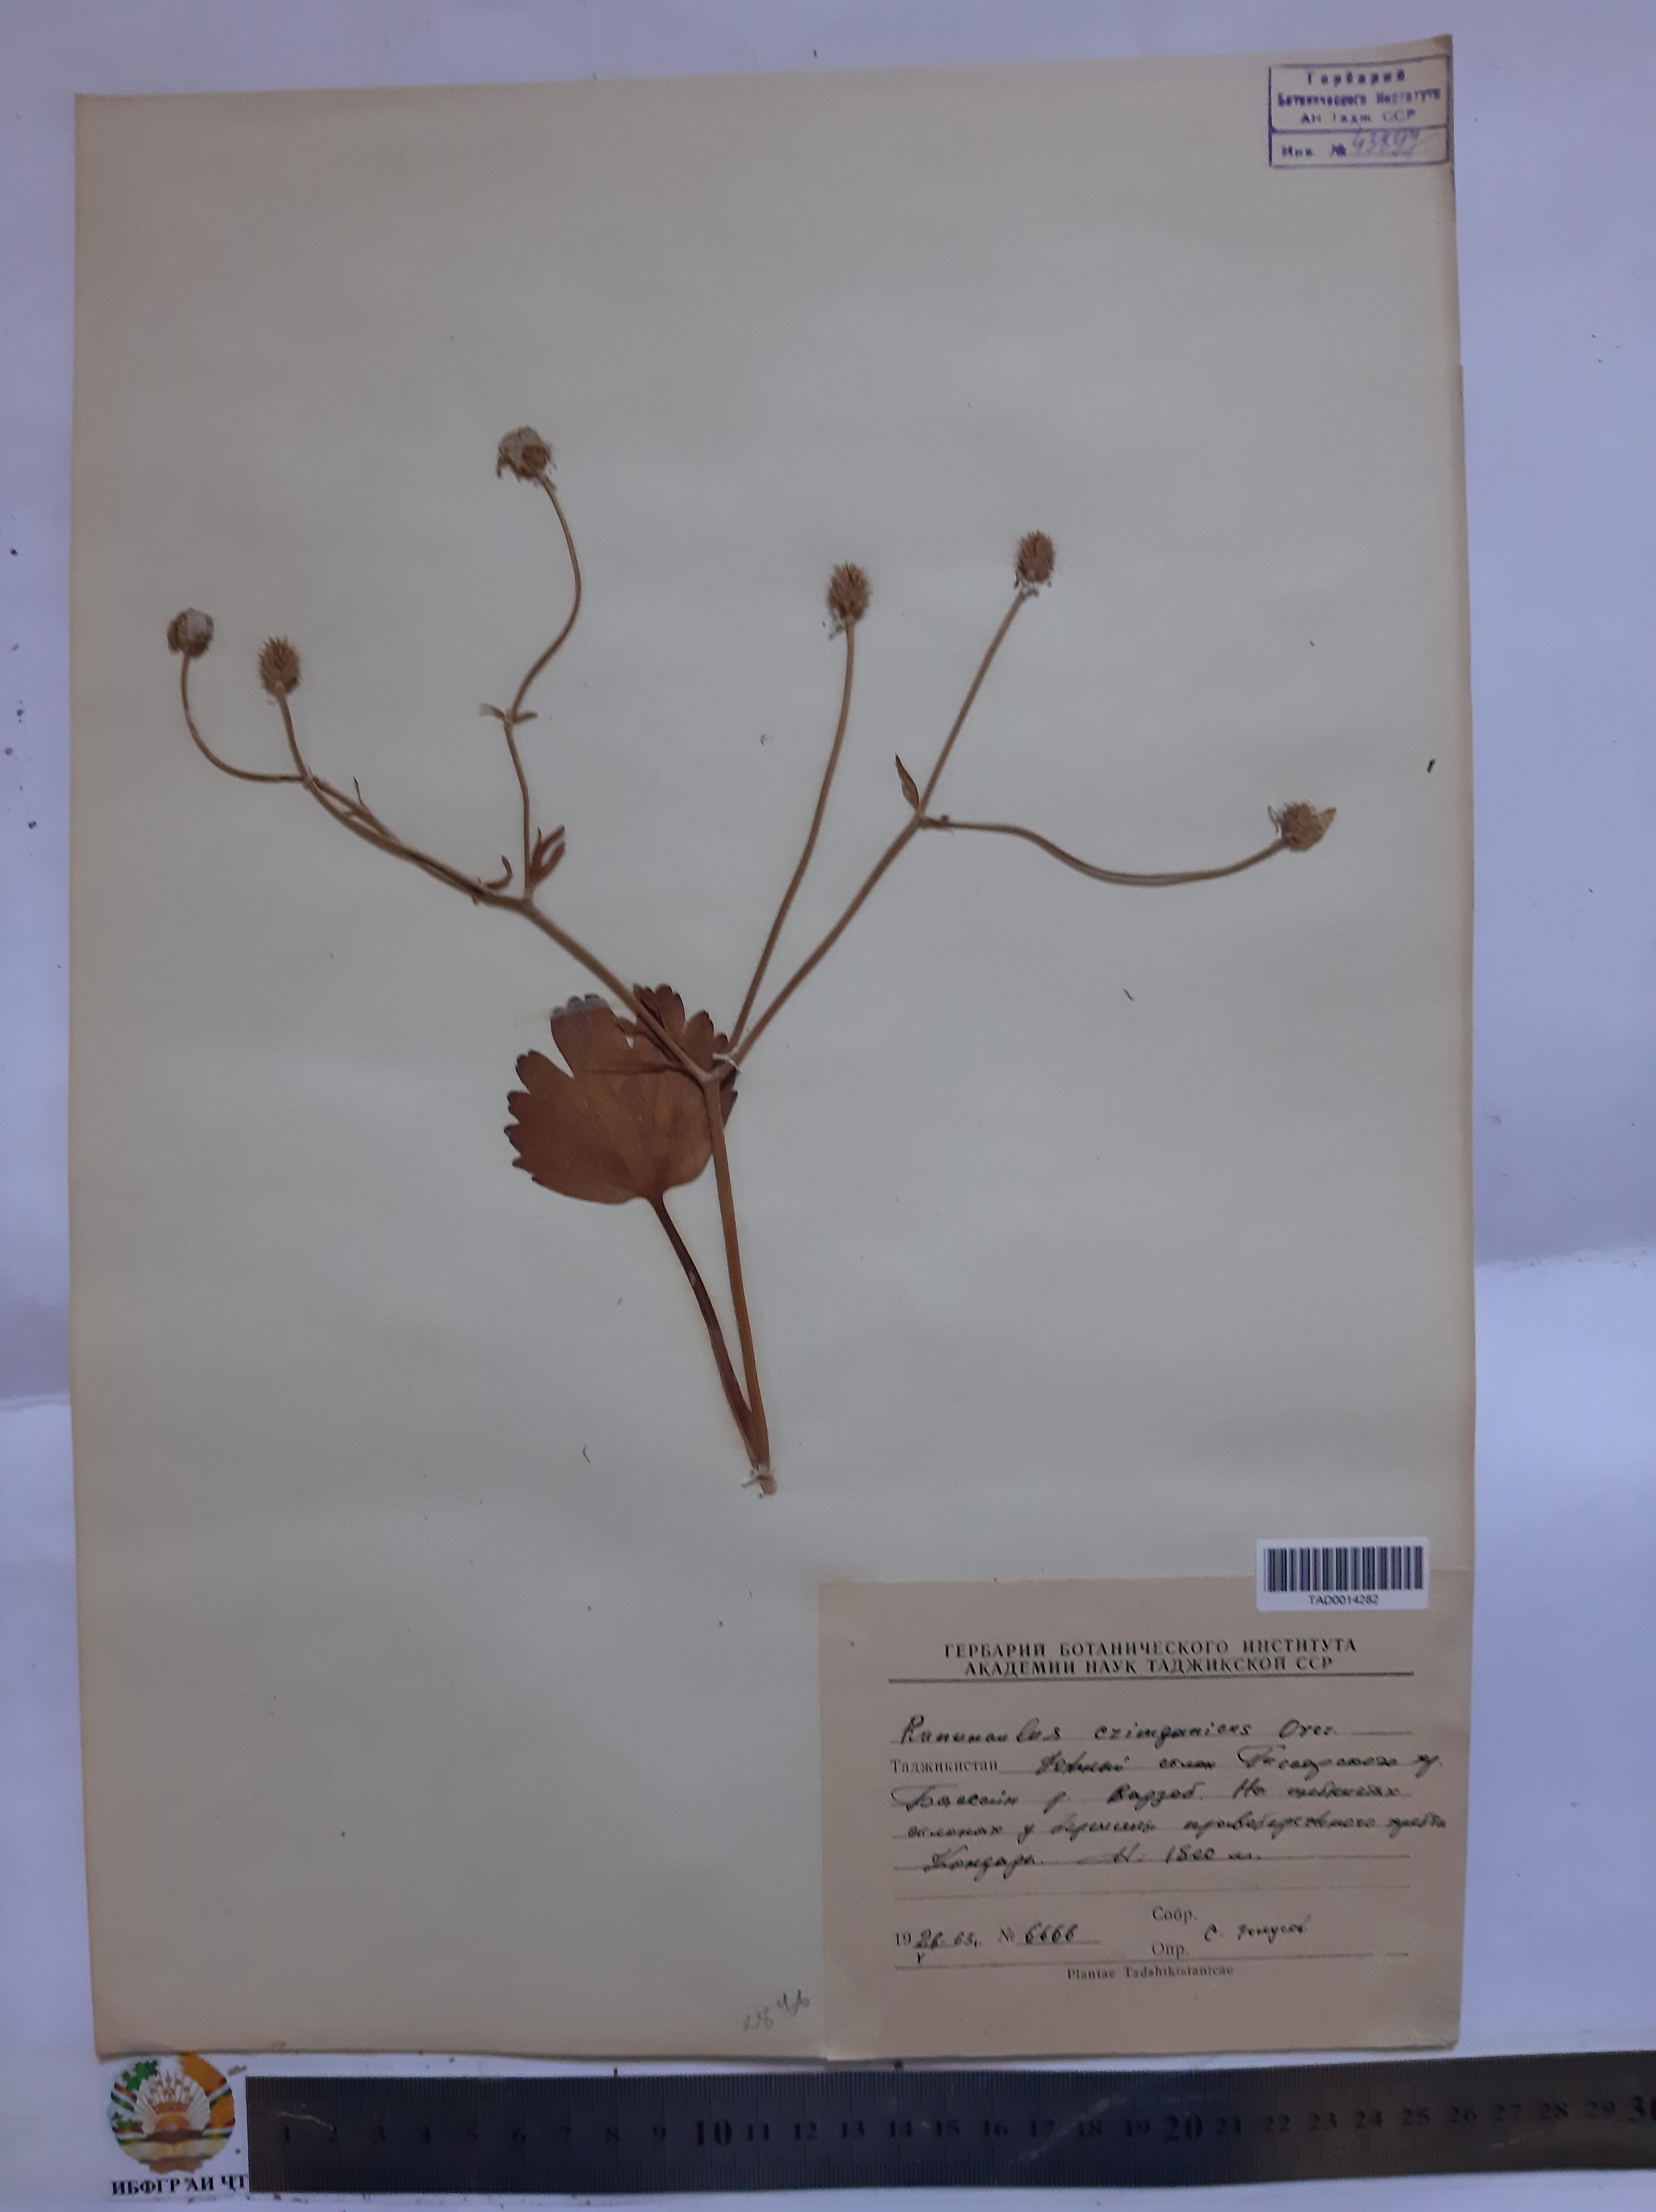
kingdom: Plantae
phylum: Tracheophyta
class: Magnoliopsida
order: Ranunculales
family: Ranunculaceae
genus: Ranunculus
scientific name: Ranunculus czimganicus
